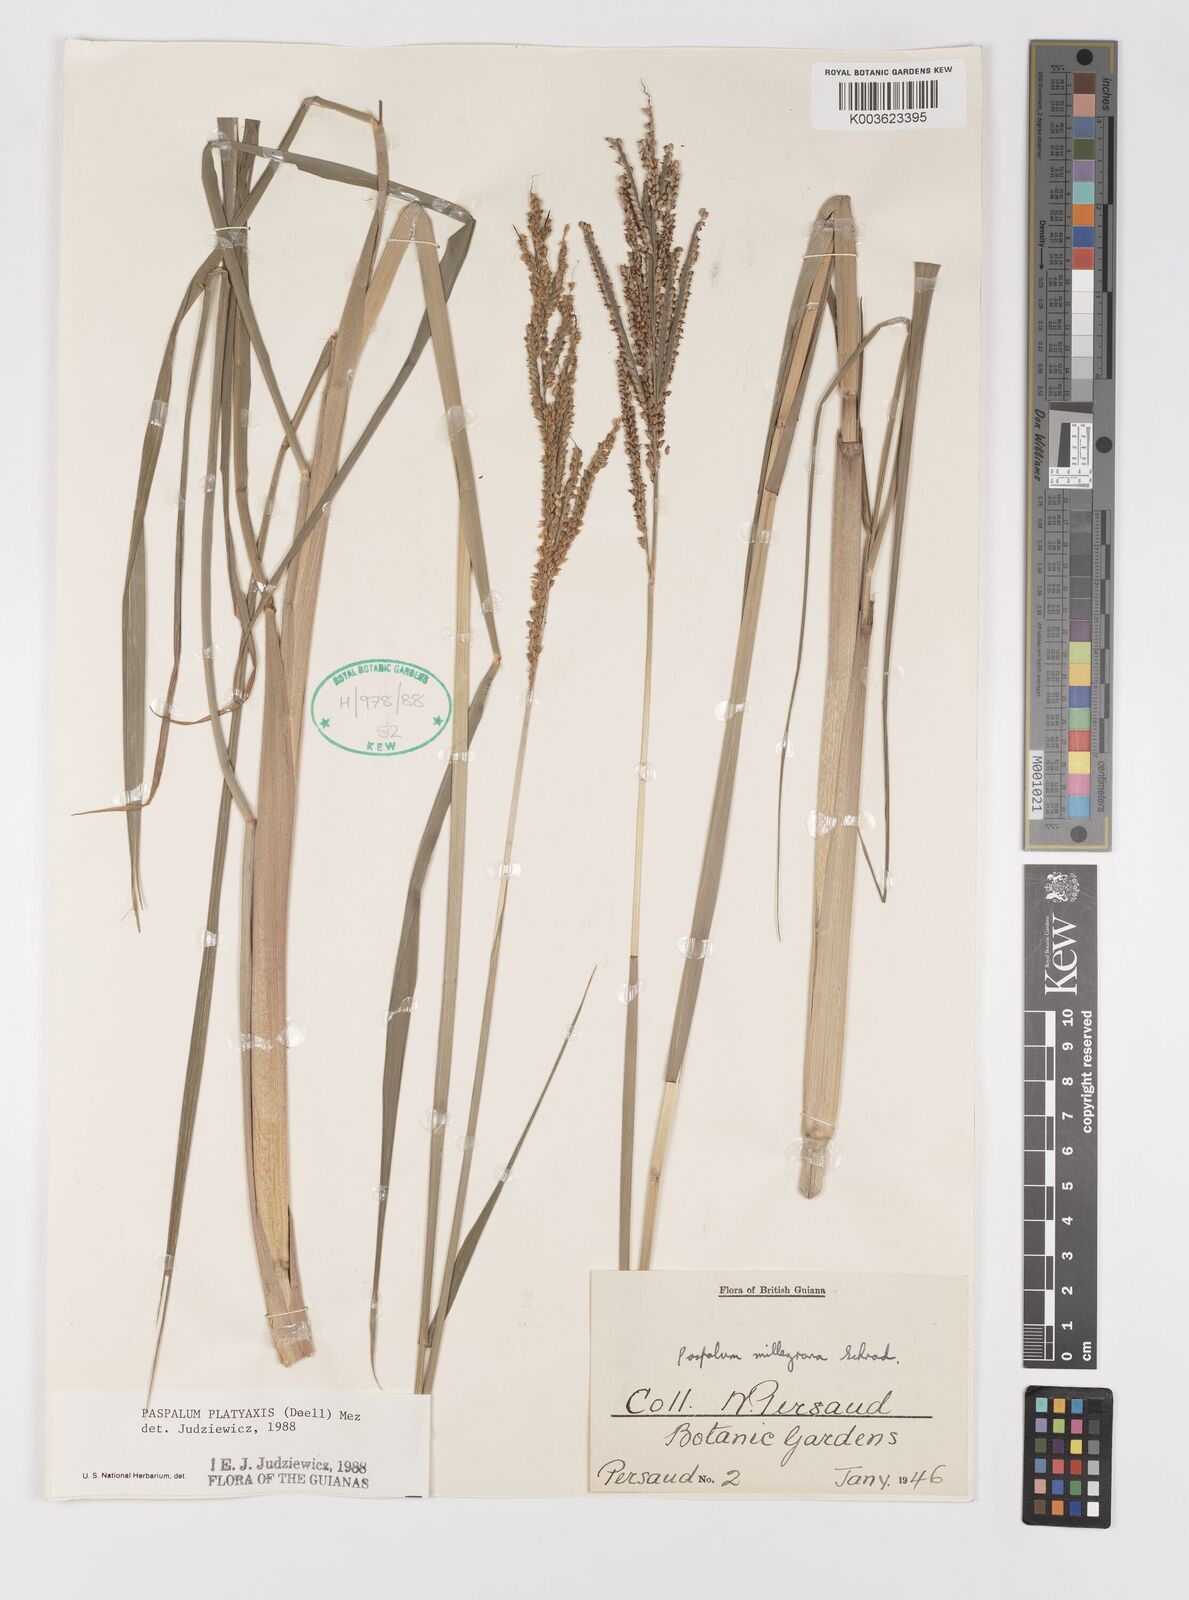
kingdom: Plantae
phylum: Tracheophyta
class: Liliopsida
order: Poales
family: Poaceae
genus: Paspalum
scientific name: Paspalum wrightii
